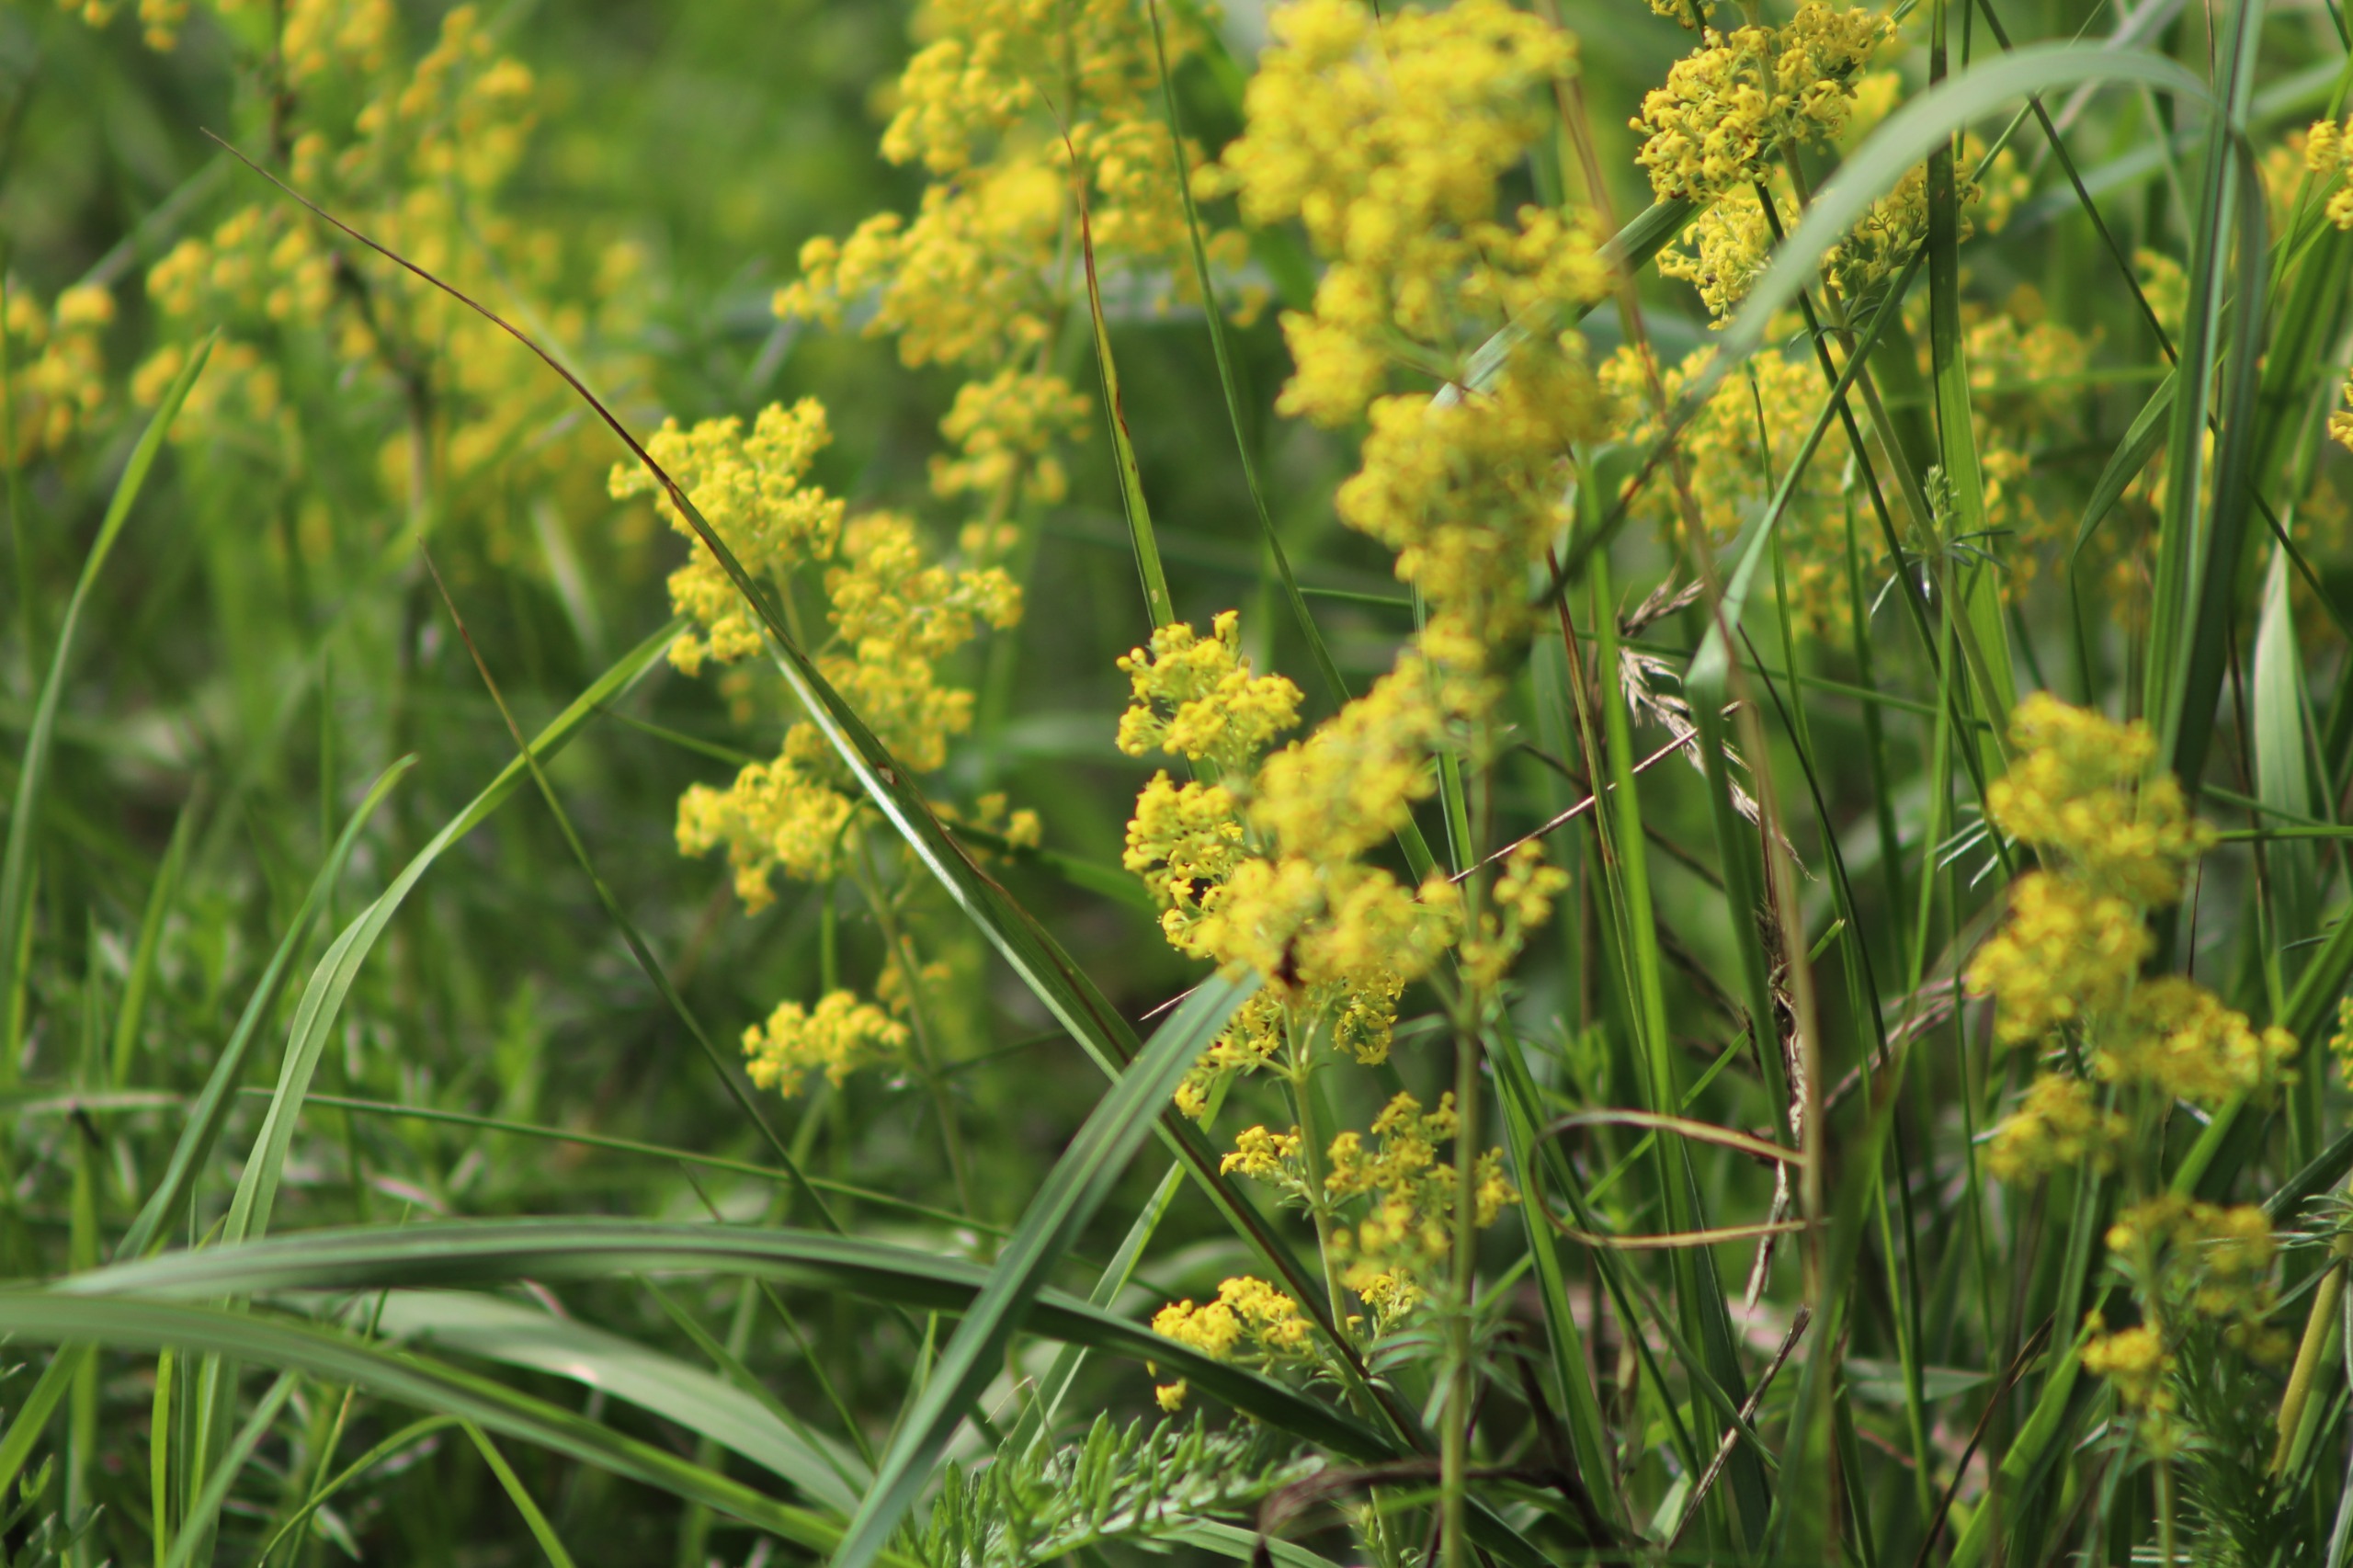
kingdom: Plantae
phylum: Tracheophyta
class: Magnoliopsida
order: Gentianales
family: Rubiaceae
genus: Galium
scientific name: Galium verum
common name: Gul snerre
